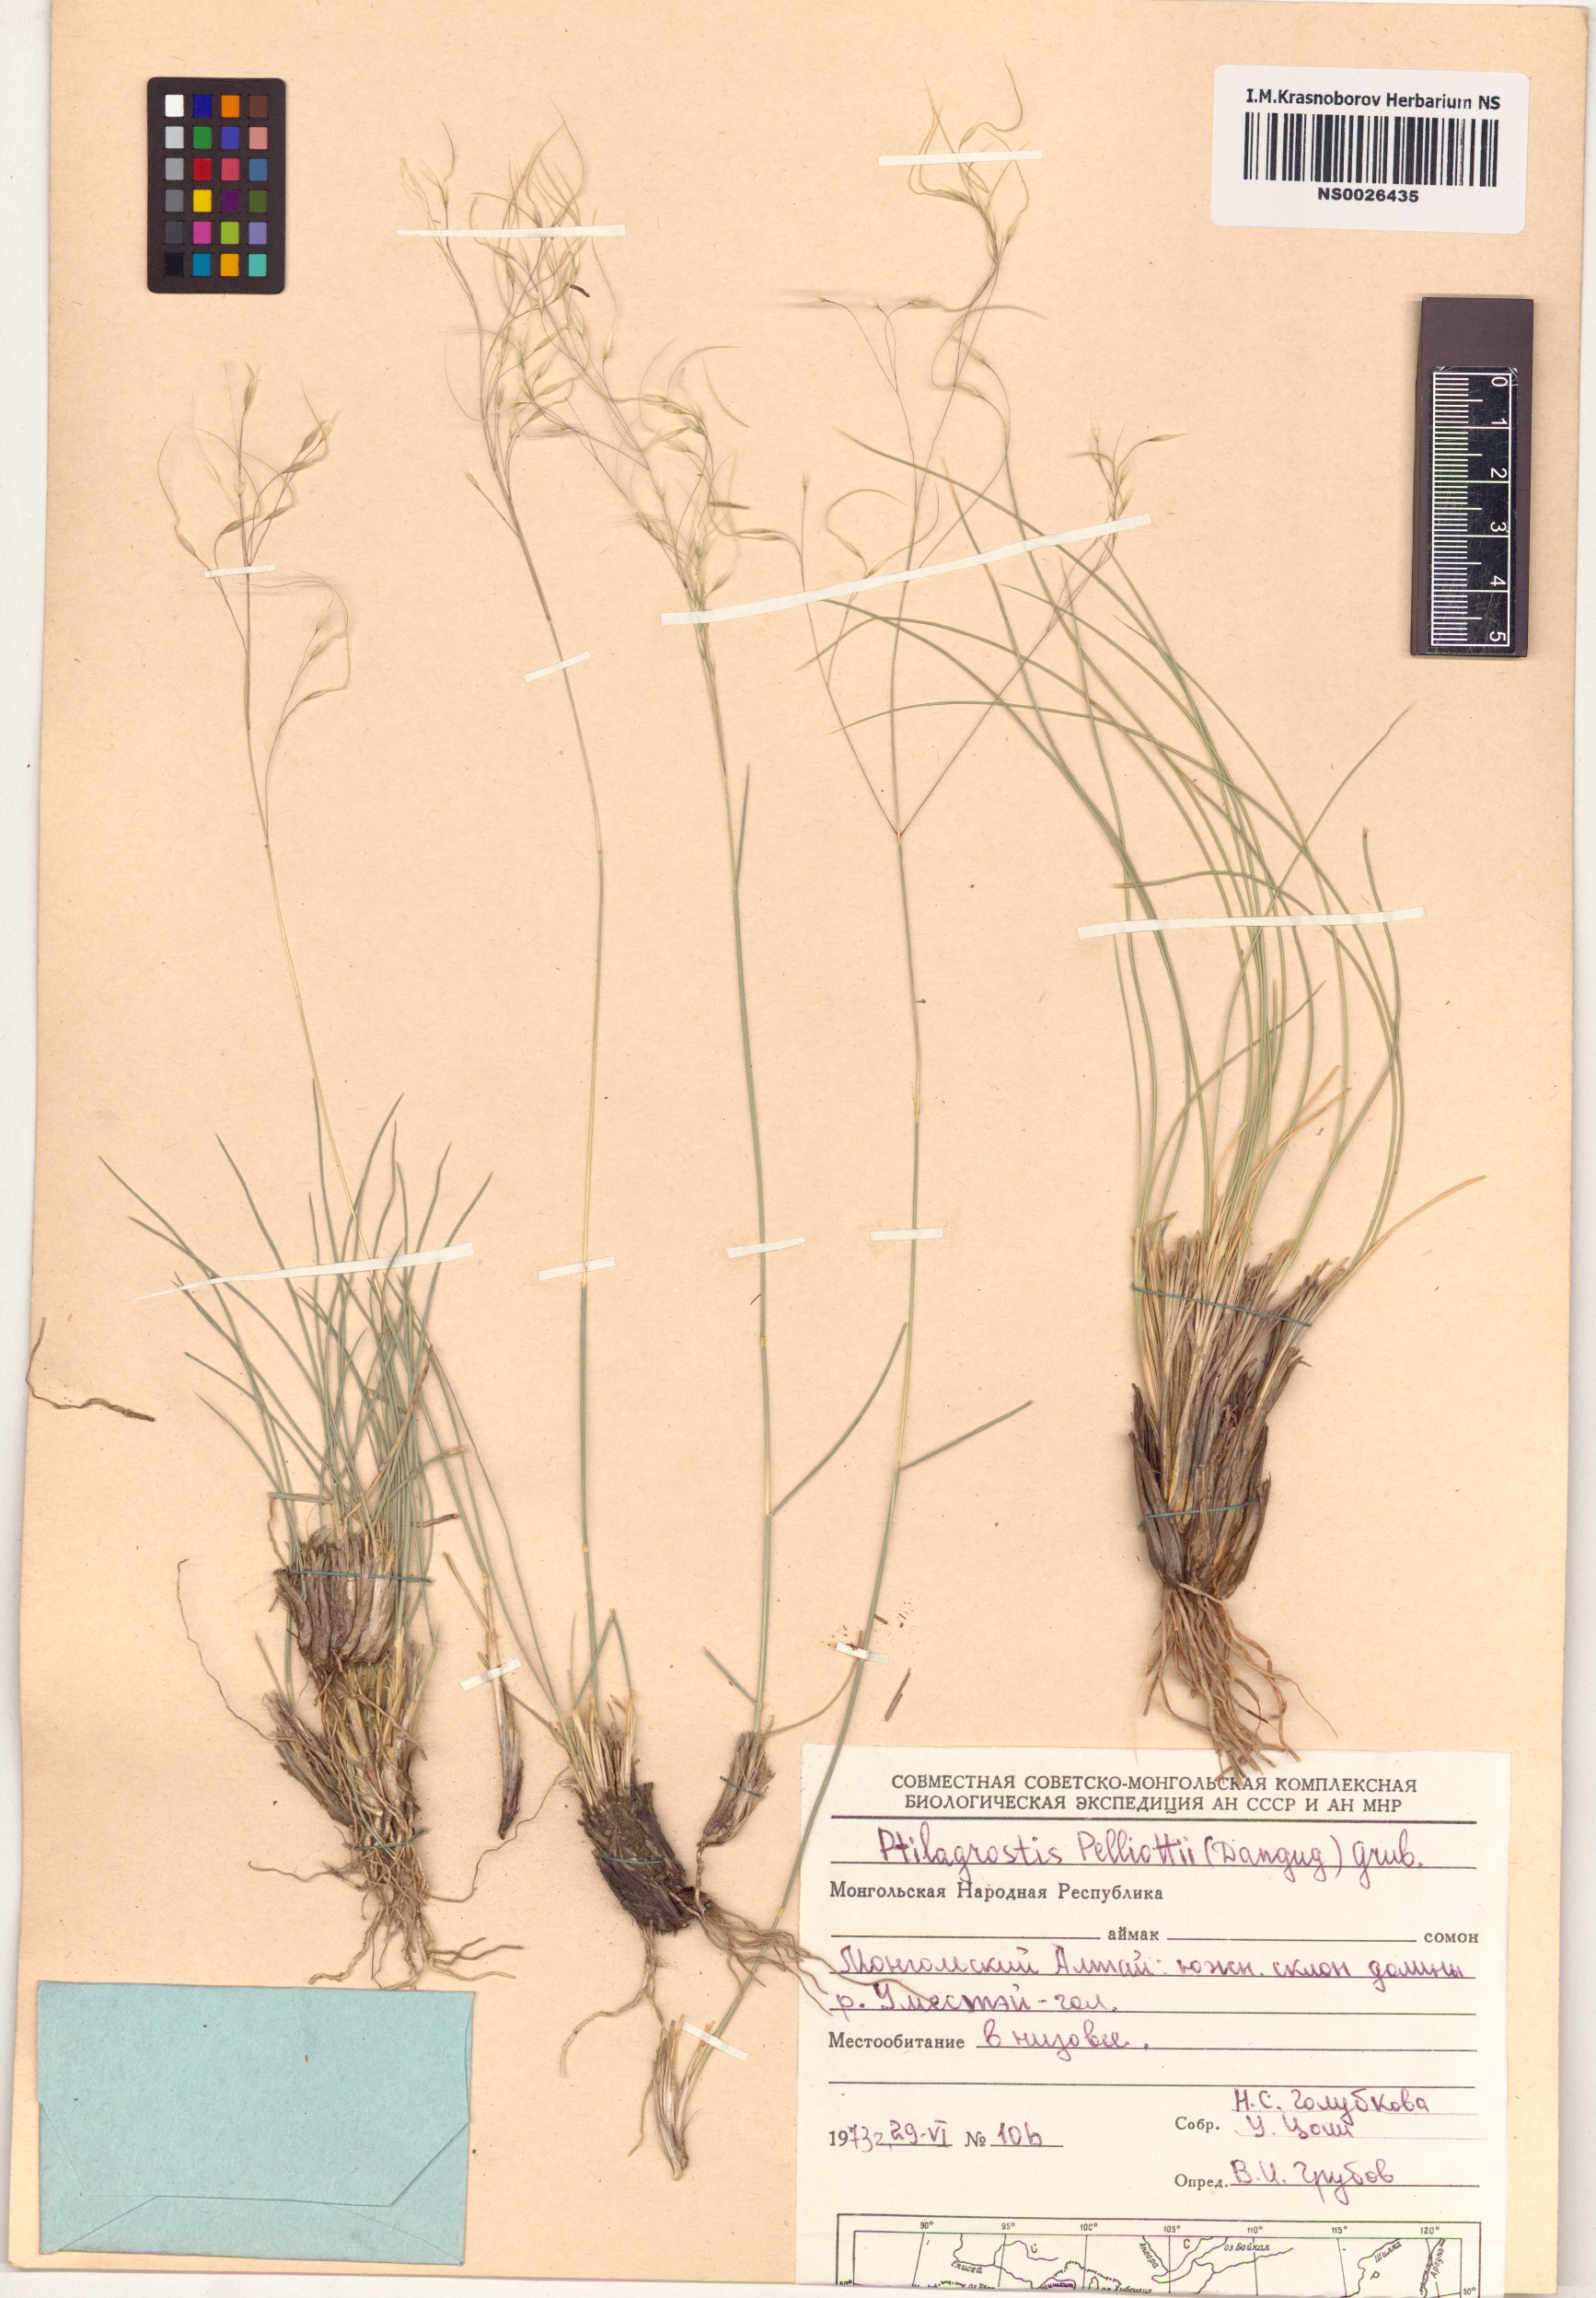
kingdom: Plantae
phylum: Tracheophyta
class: Liliopsida
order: Poales
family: Poaceae
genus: Achnatherum
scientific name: Achnatherum pelliotii
